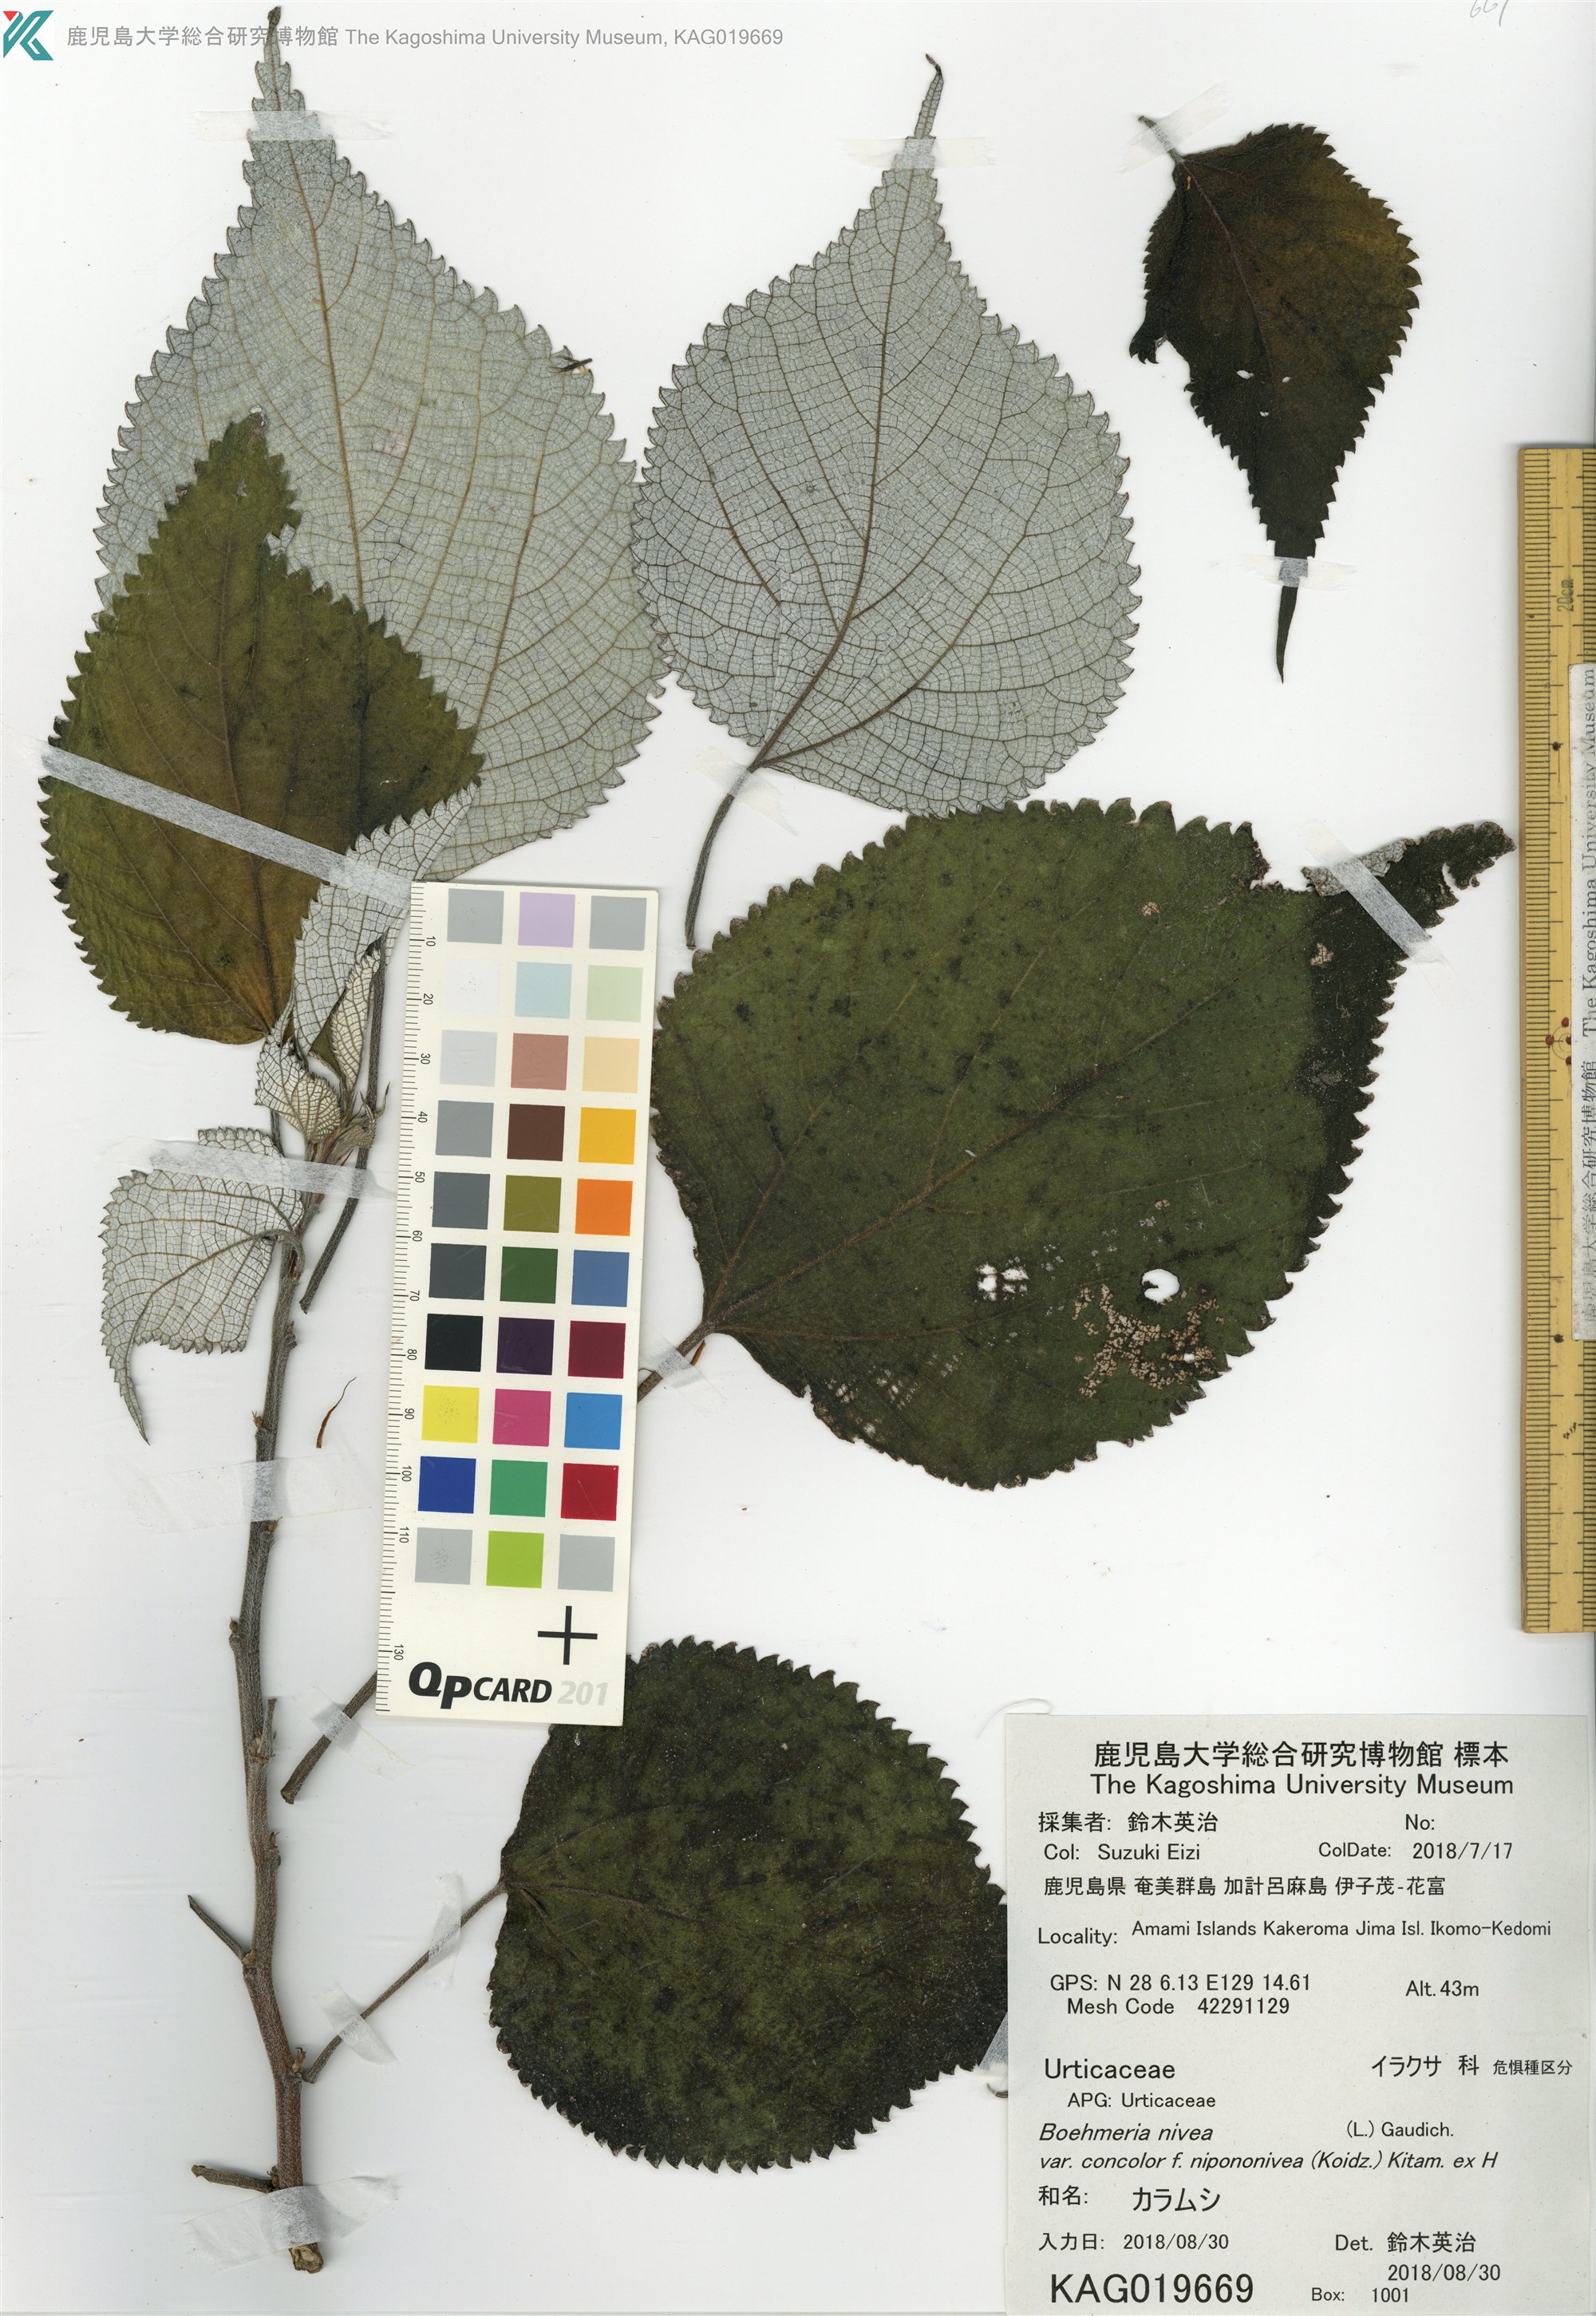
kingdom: Plantae
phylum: Tracheophyta
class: Magnoliopsida
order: Rosales
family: Urticaceae
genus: Boehmeria
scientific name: Boehmeria nivea
